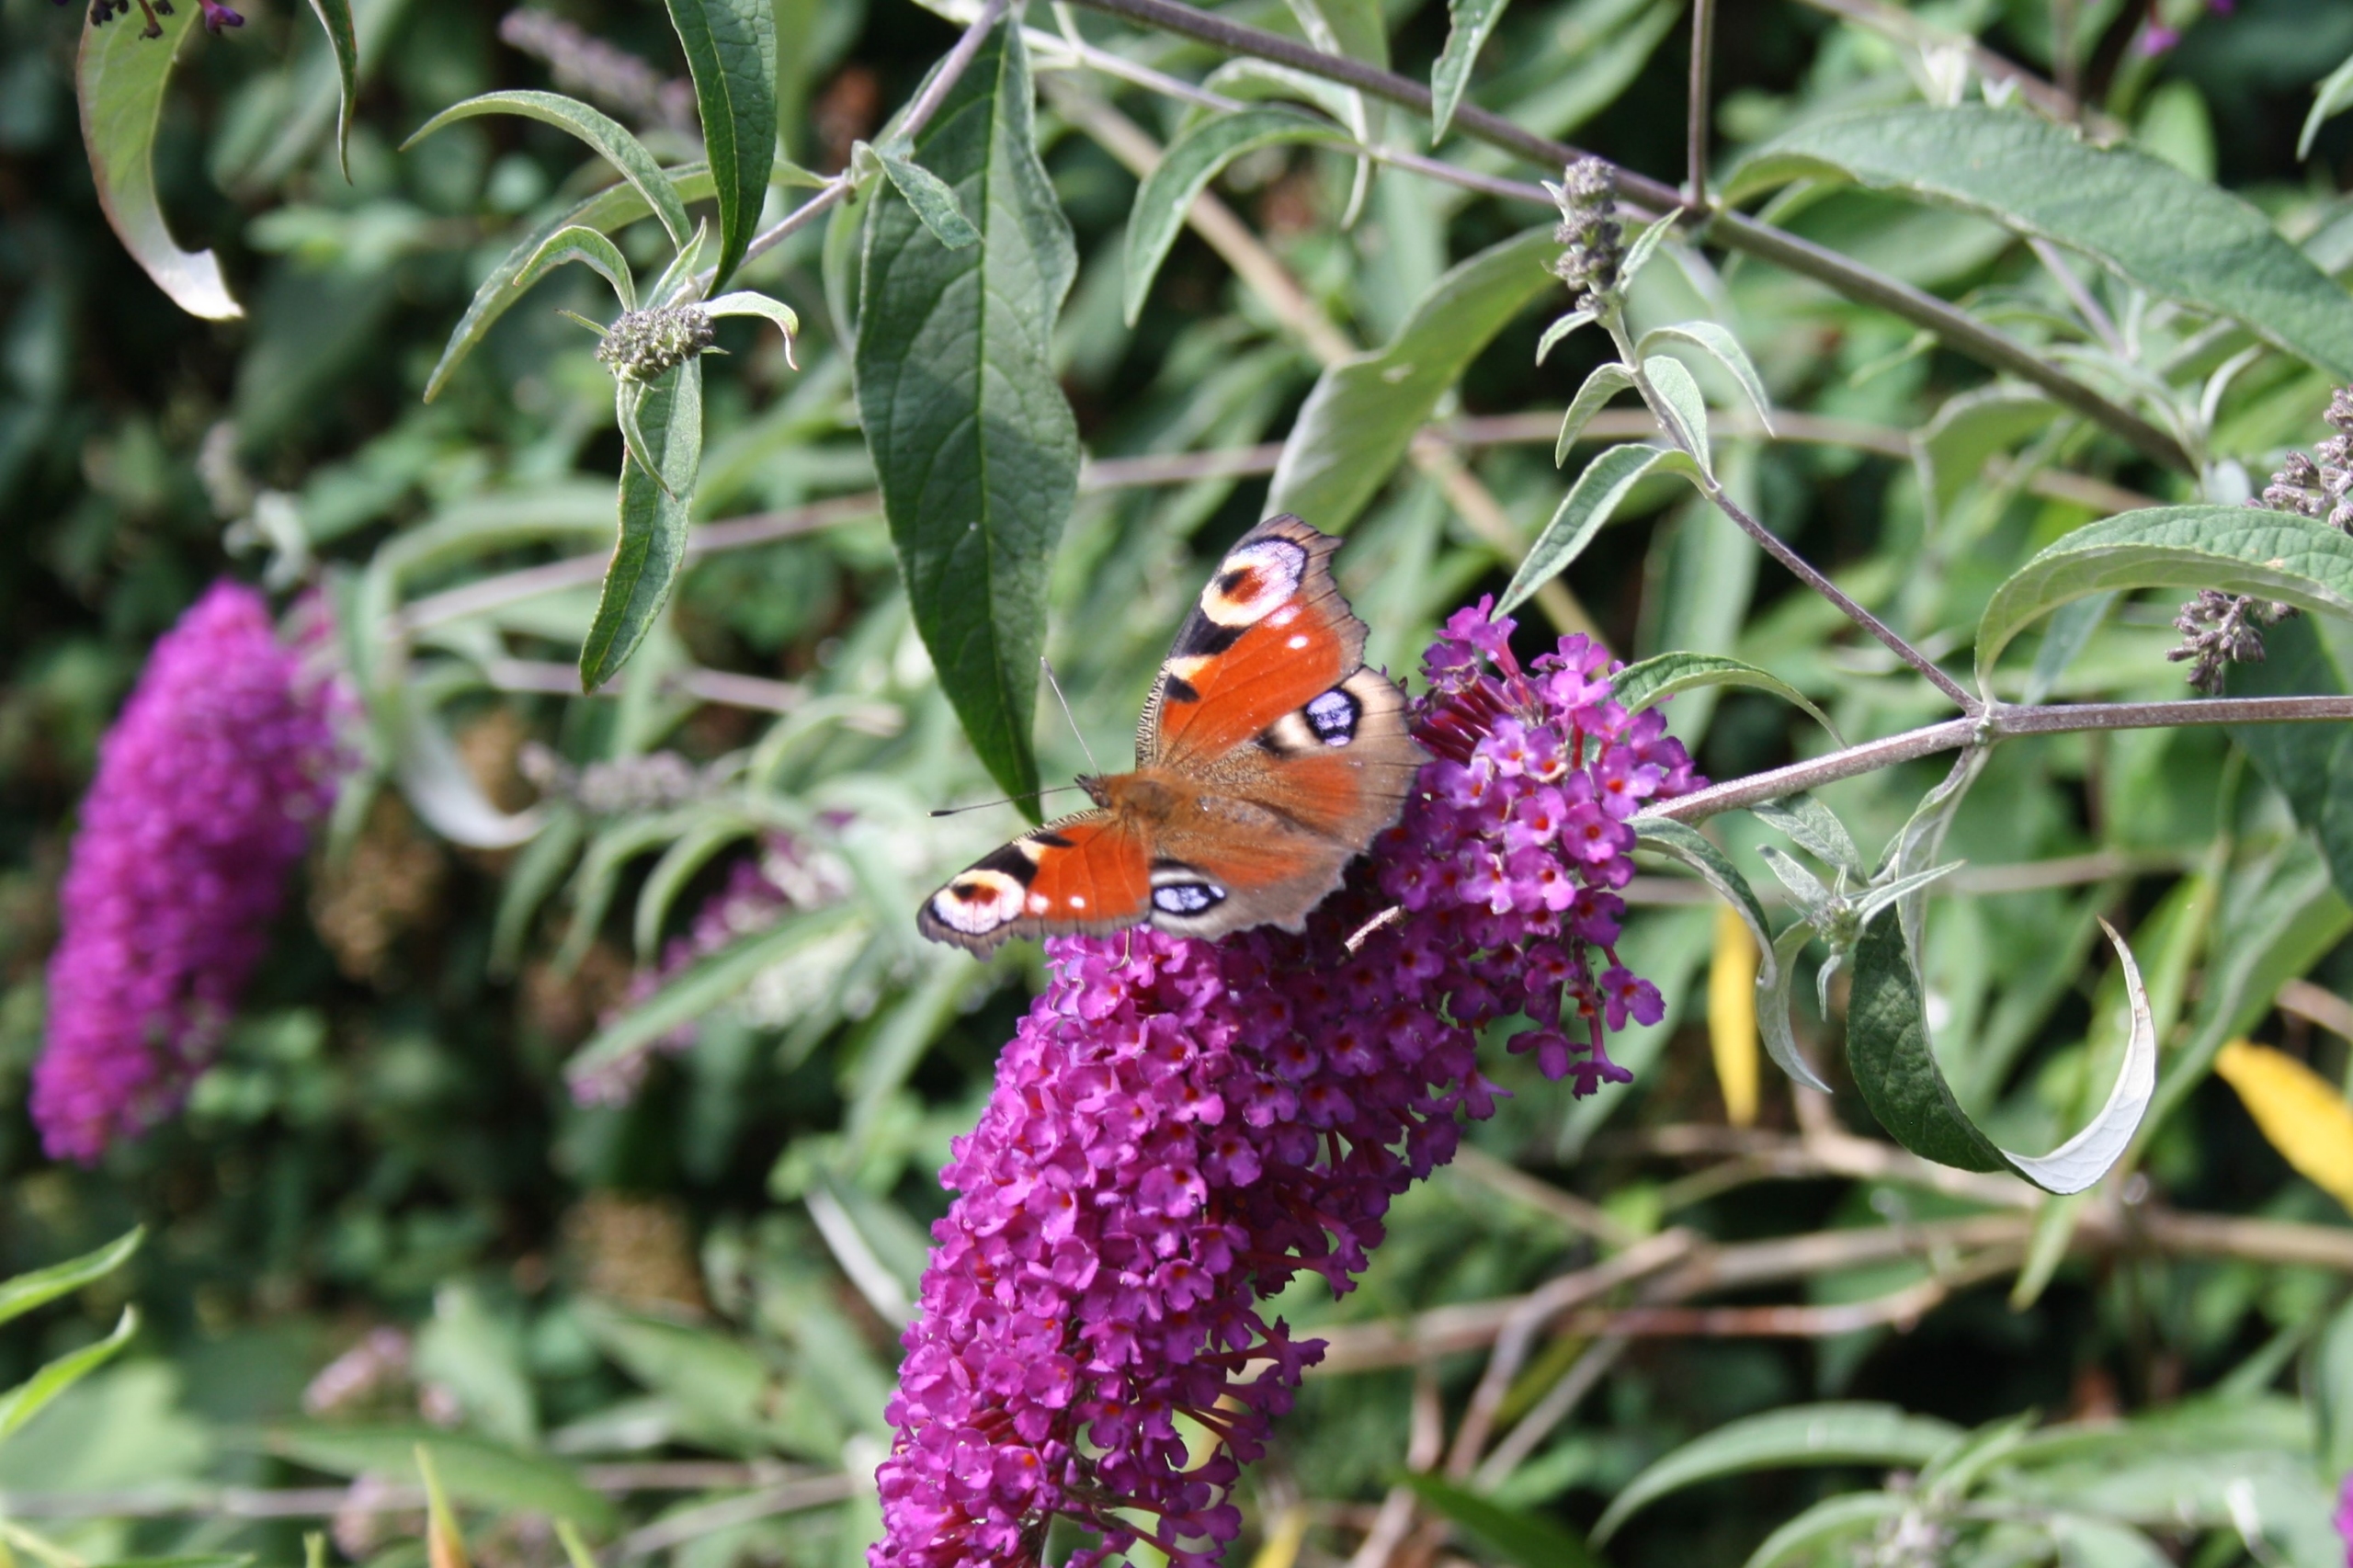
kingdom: Animalia
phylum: Arthropoda
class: Insecta
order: Lepidoptera
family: Nymphalidae
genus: Aglais
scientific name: Aglais io
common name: Dagpåfugleøje
